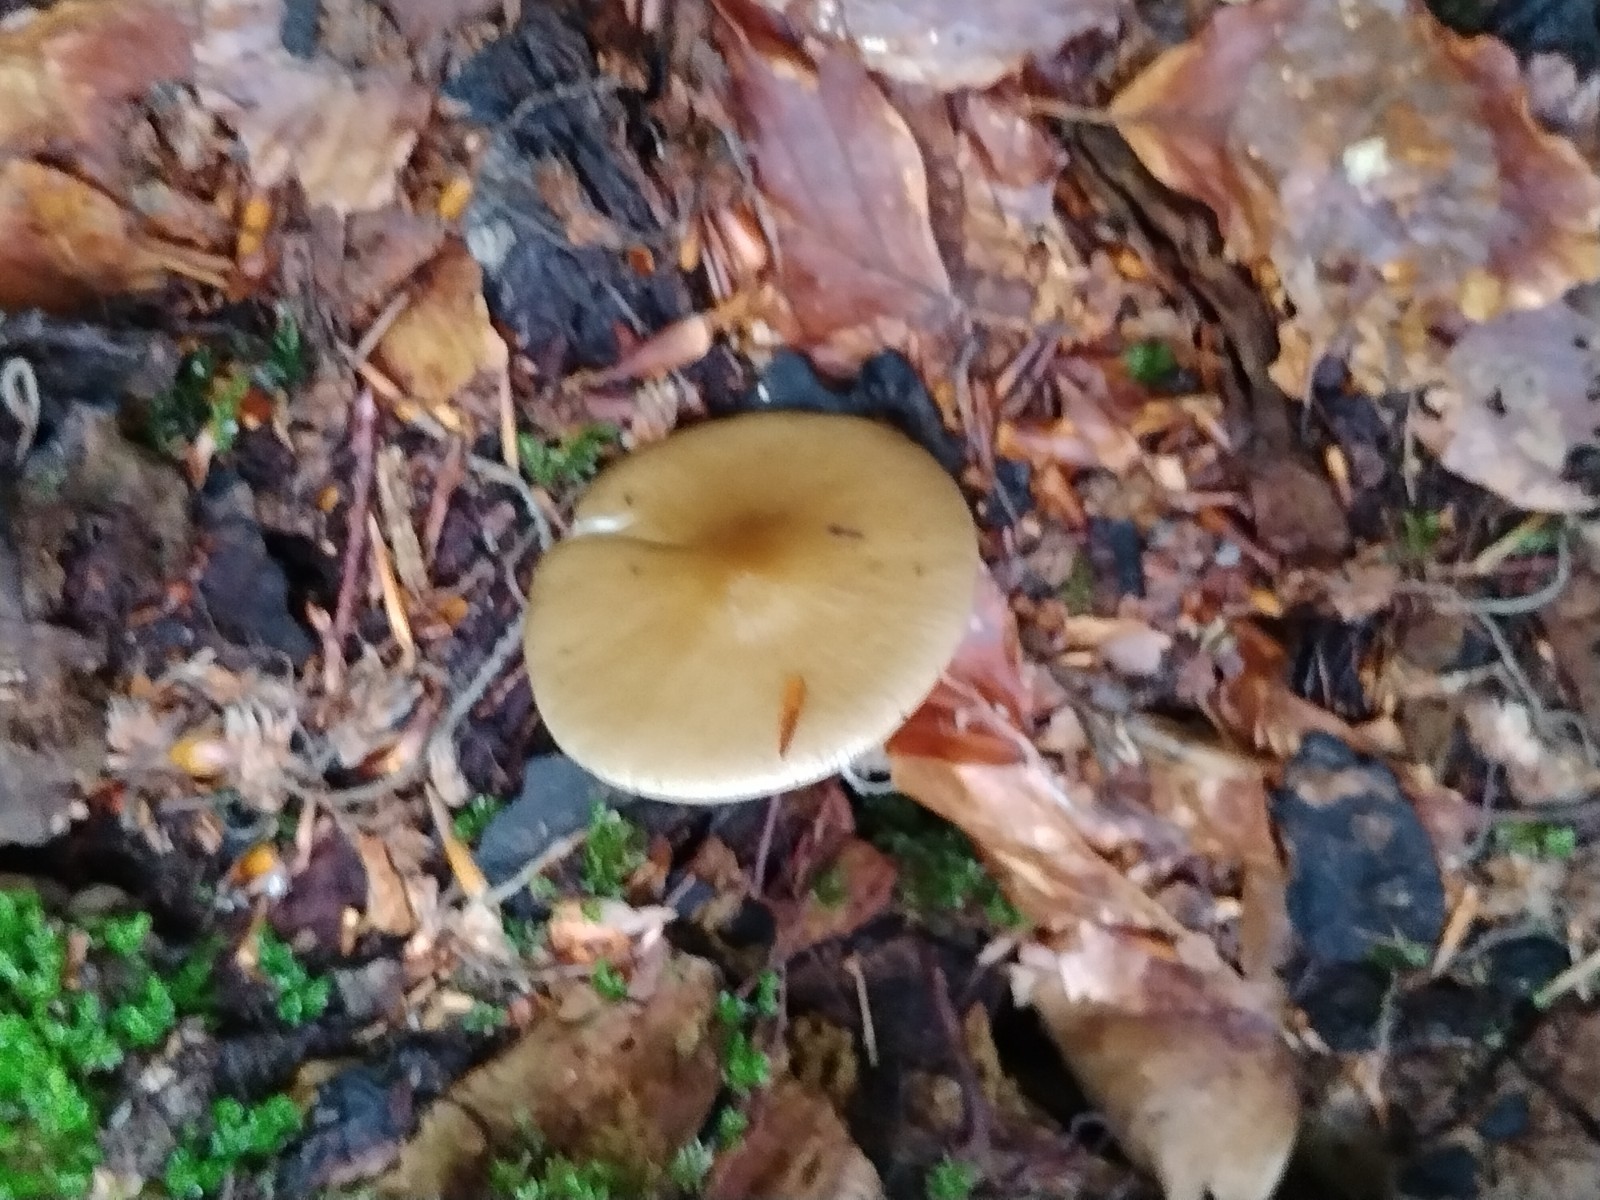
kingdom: Fungi
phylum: Basidiomycota
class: Agaricomycetes
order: Agaricales
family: Physalacriaceae
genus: Hymenopellis
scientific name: Hymenopellis radicata
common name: almindelig pælerodshat
